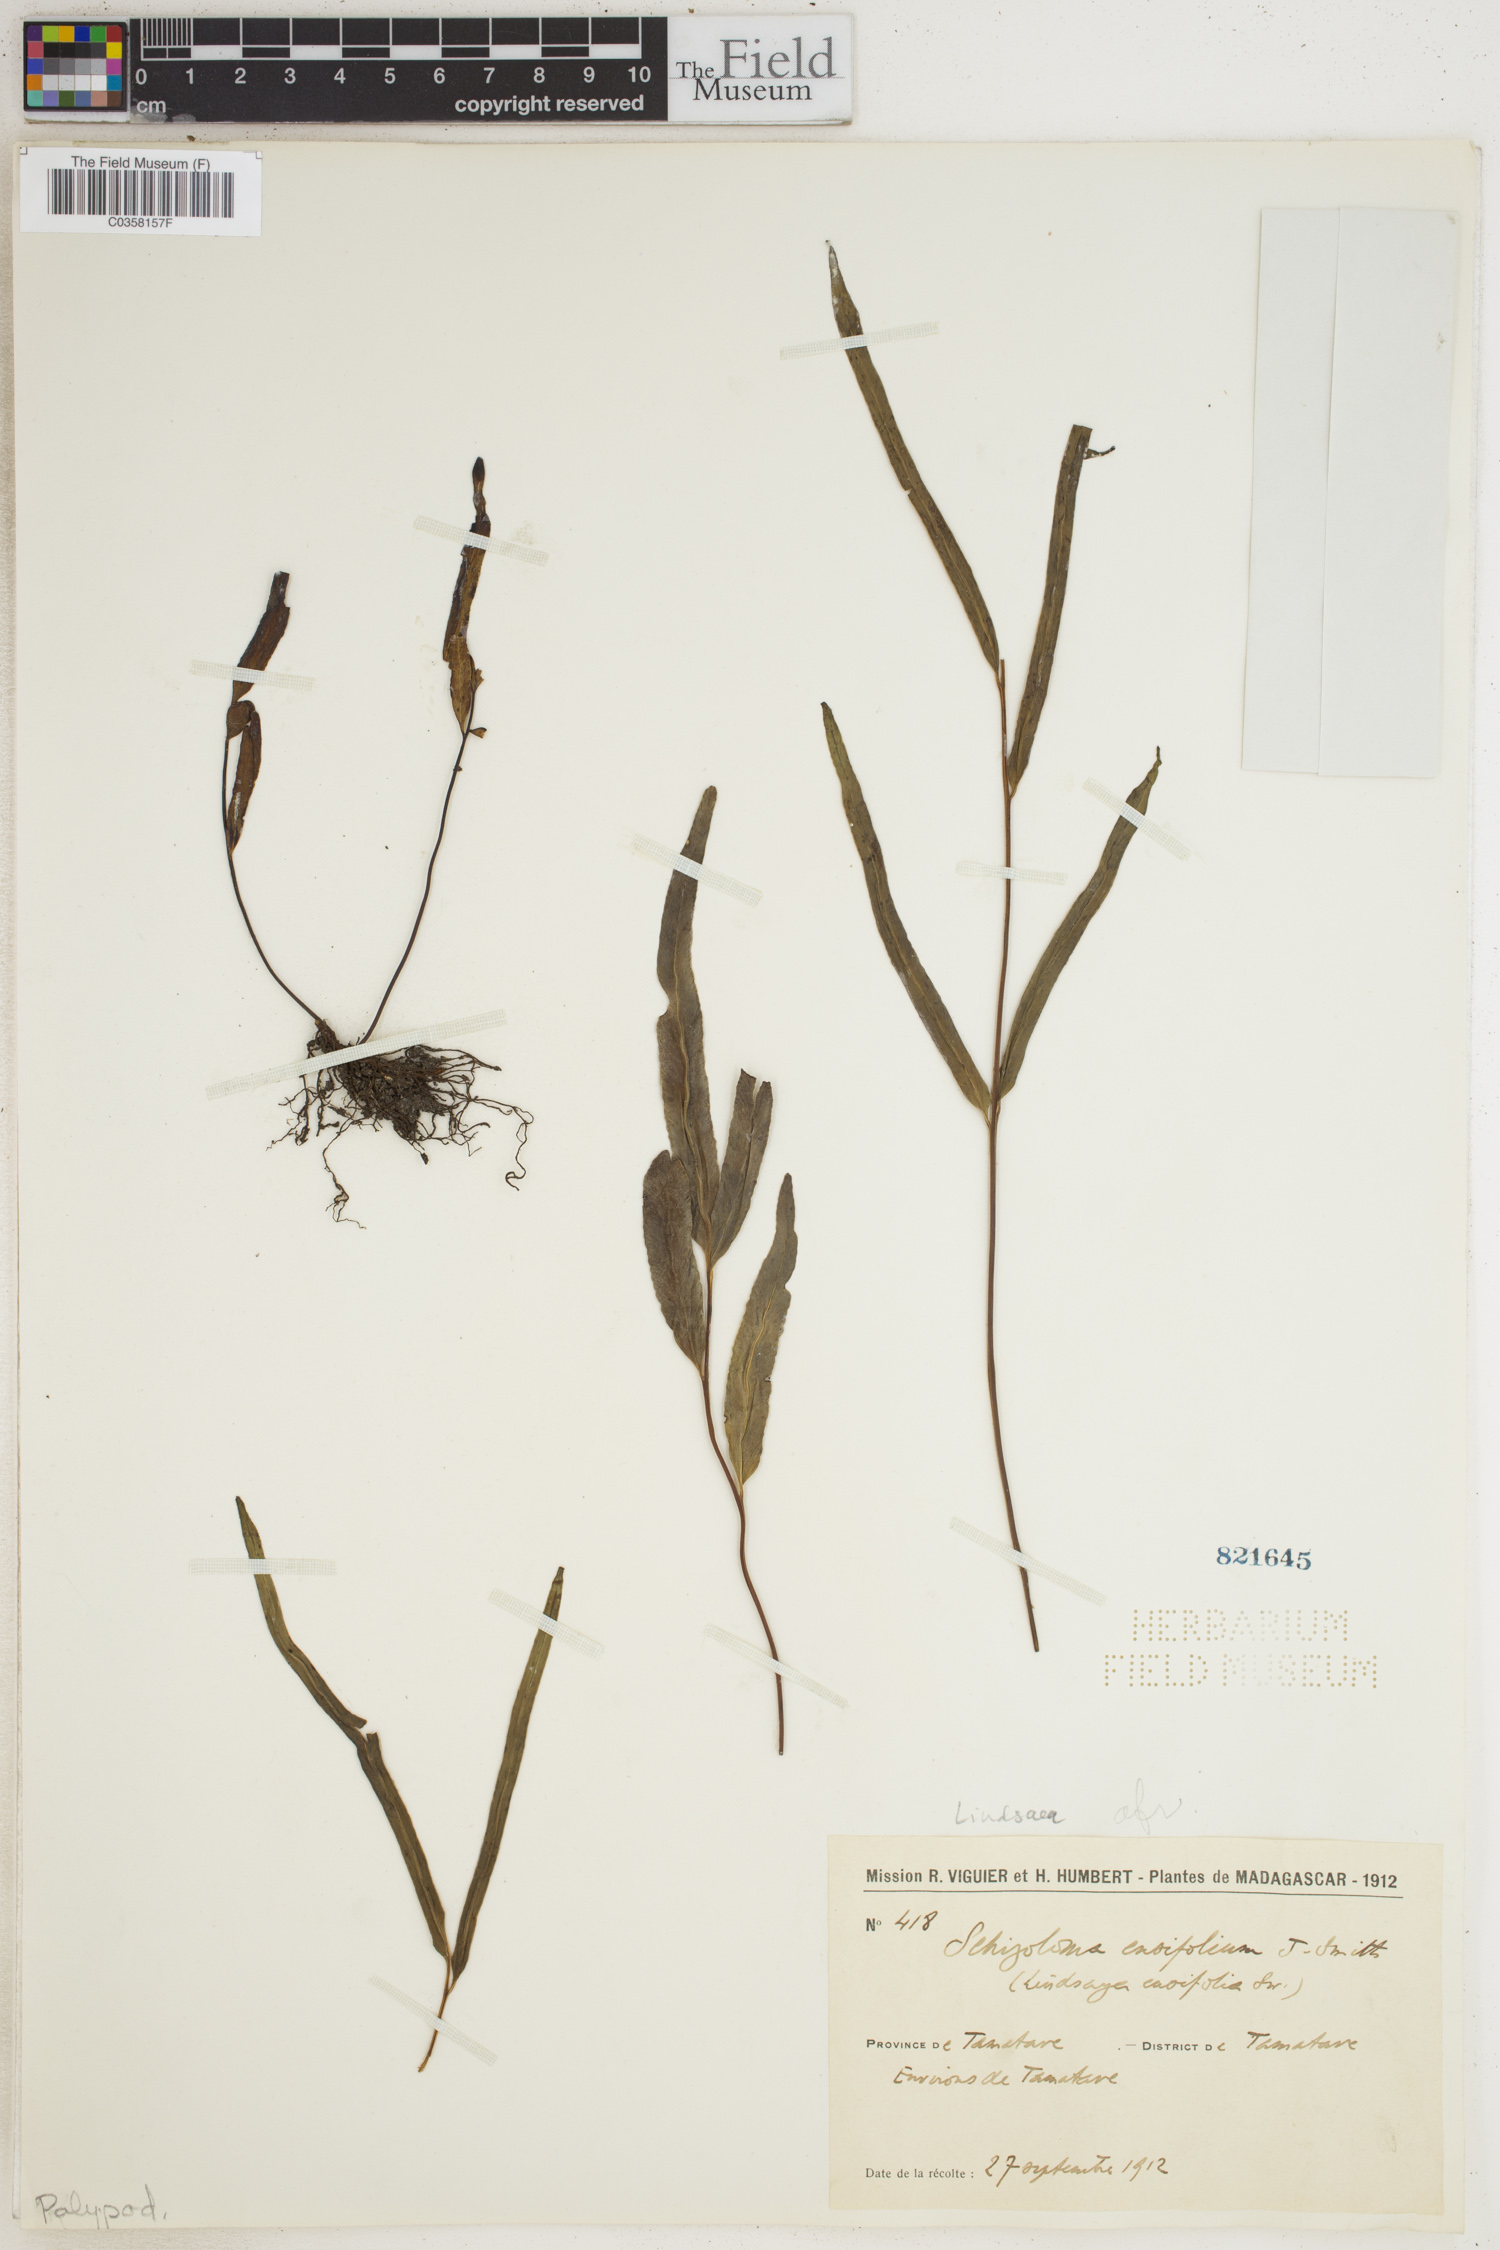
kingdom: Plantae
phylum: Tracheophyta
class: Polypodiopsida
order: Polypodiales
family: Lindsaeaceae
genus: Lindsaea
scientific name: Lindsaea ensifolia
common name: Graceful necklace fern
